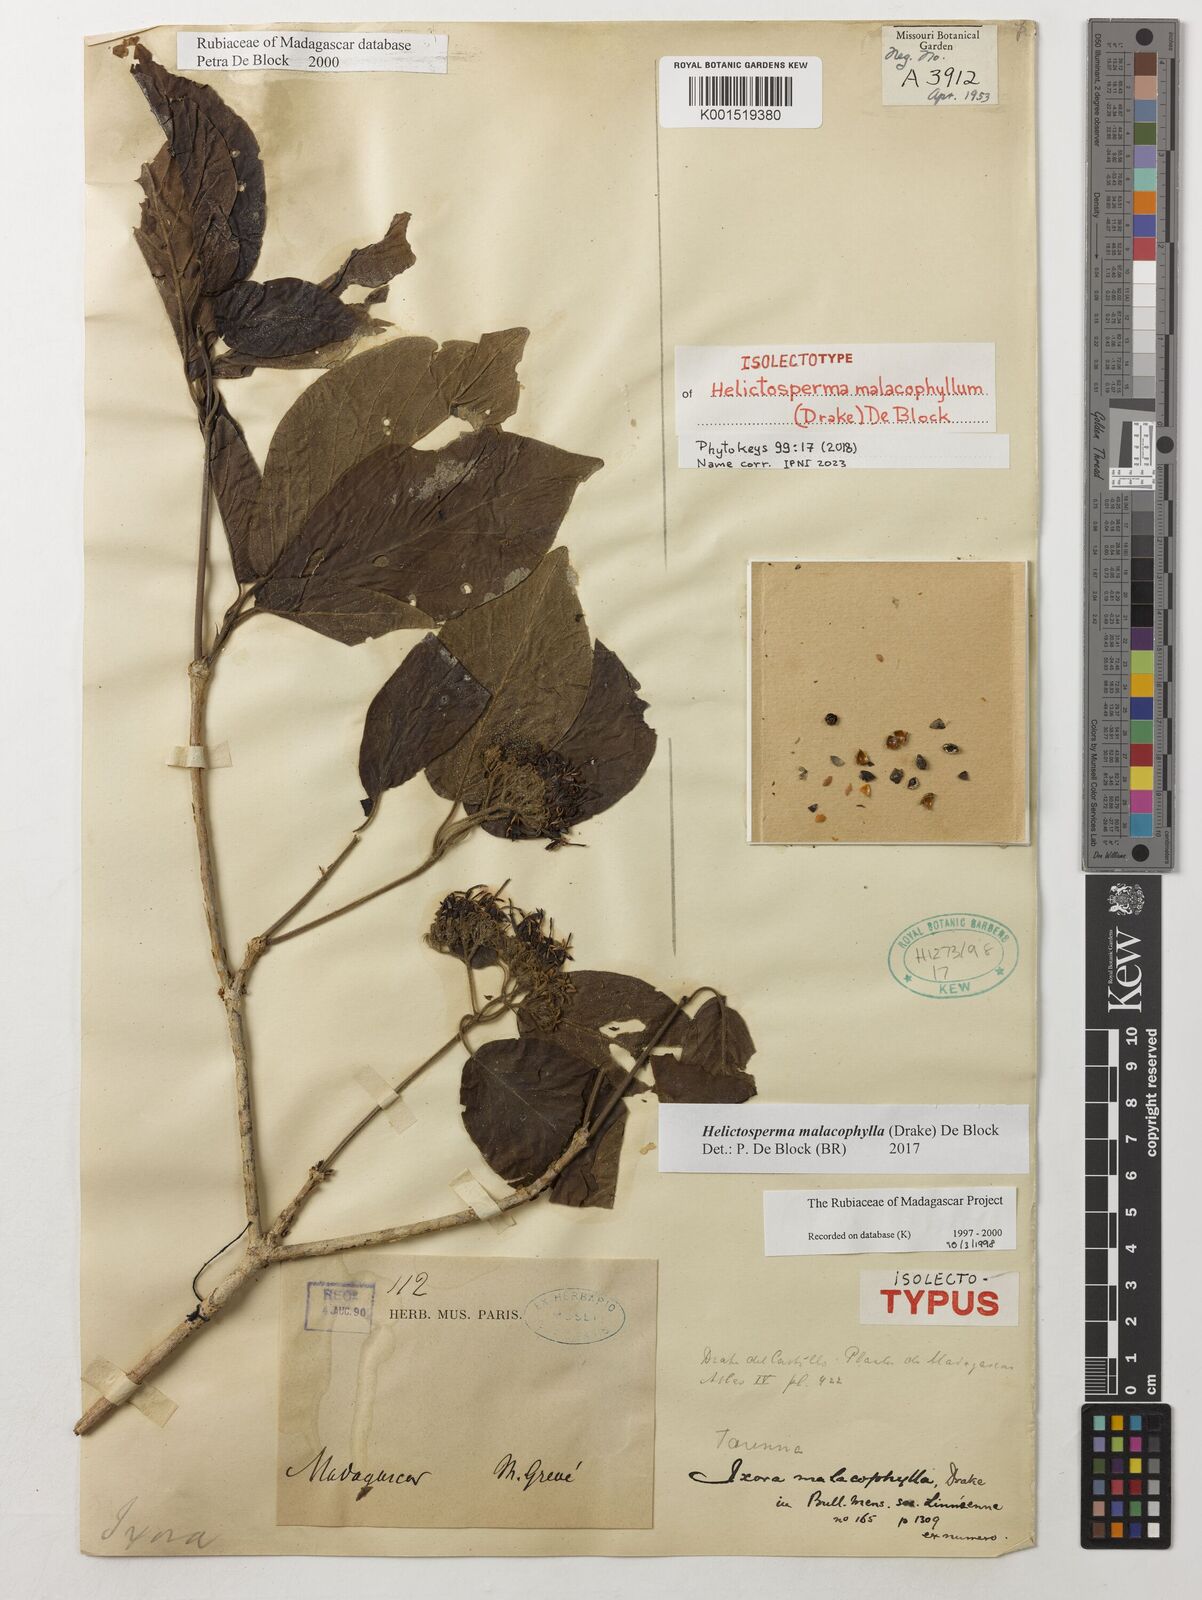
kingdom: Plantae
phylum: Tracheophyta
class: Magnoliopsida
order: Gentianales
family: Rubiaceae
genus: Helictosperma
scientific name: Helictosperma malacophyllum
